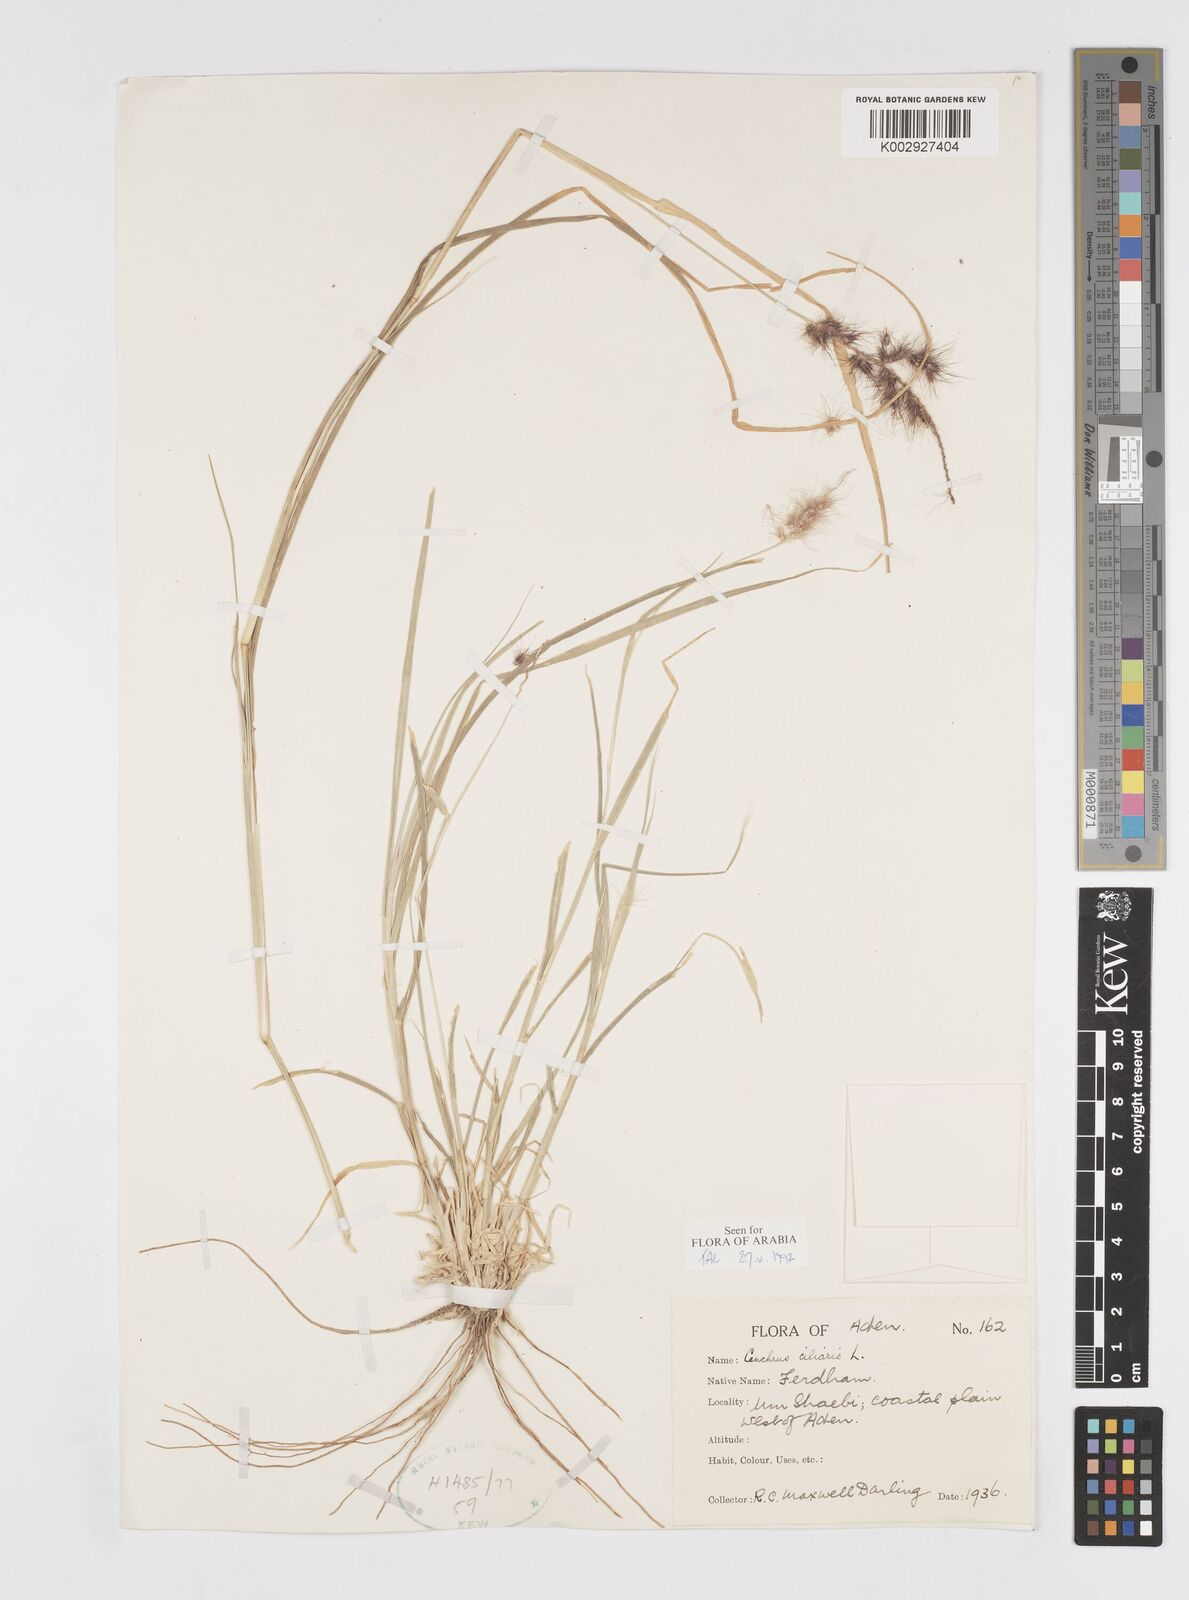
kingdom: Plantae
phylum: Tracheophyta
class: Liliopsida
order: Poales
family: Poaceae
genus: Cenchrus
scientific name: Cenchrus ciliaris
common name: Buffelgrass
